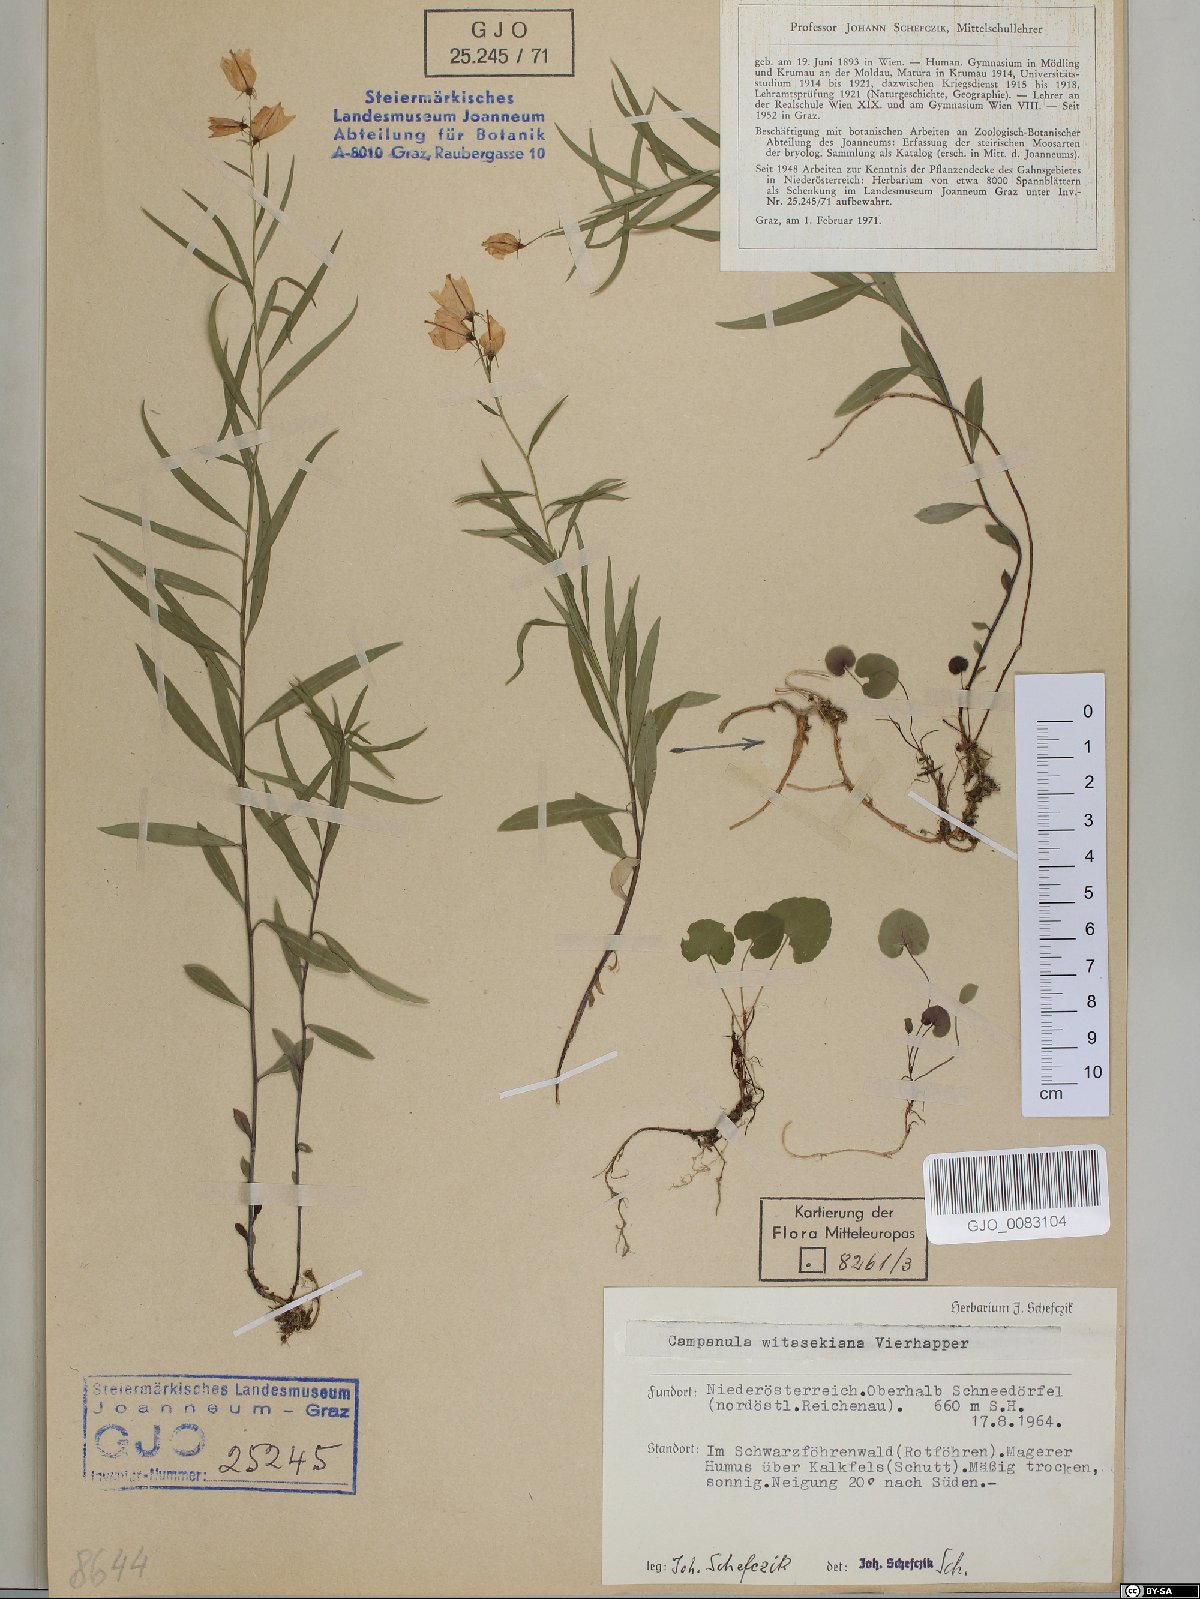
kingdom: Plantae
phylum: Tracheophyta
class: Magnoliopsida
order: Asterales
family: Campanulaceae
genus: Campanula
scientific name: Campanula witasekiana
